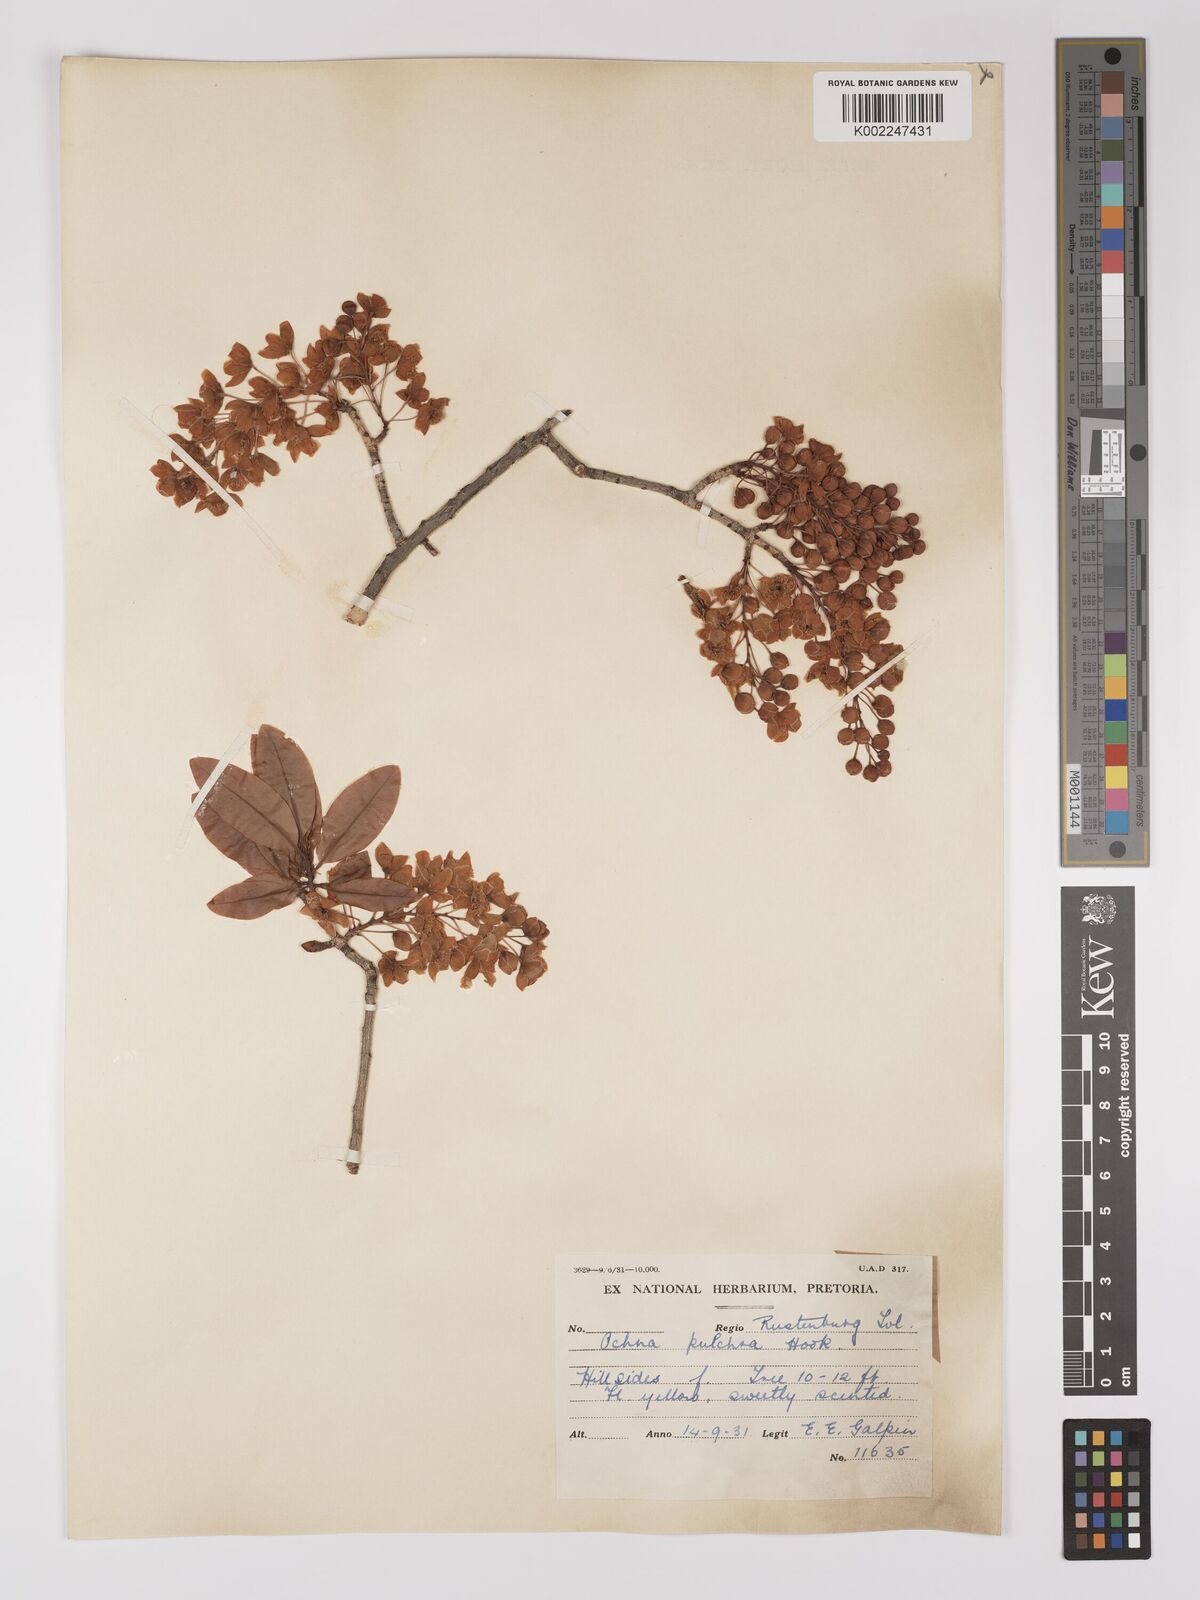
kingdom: Plantae
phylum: Tracheophyta
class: Magnoliopsida
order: Malpighiales
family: Ochnaceae
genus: Ochna
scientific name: Ochna pulchra
